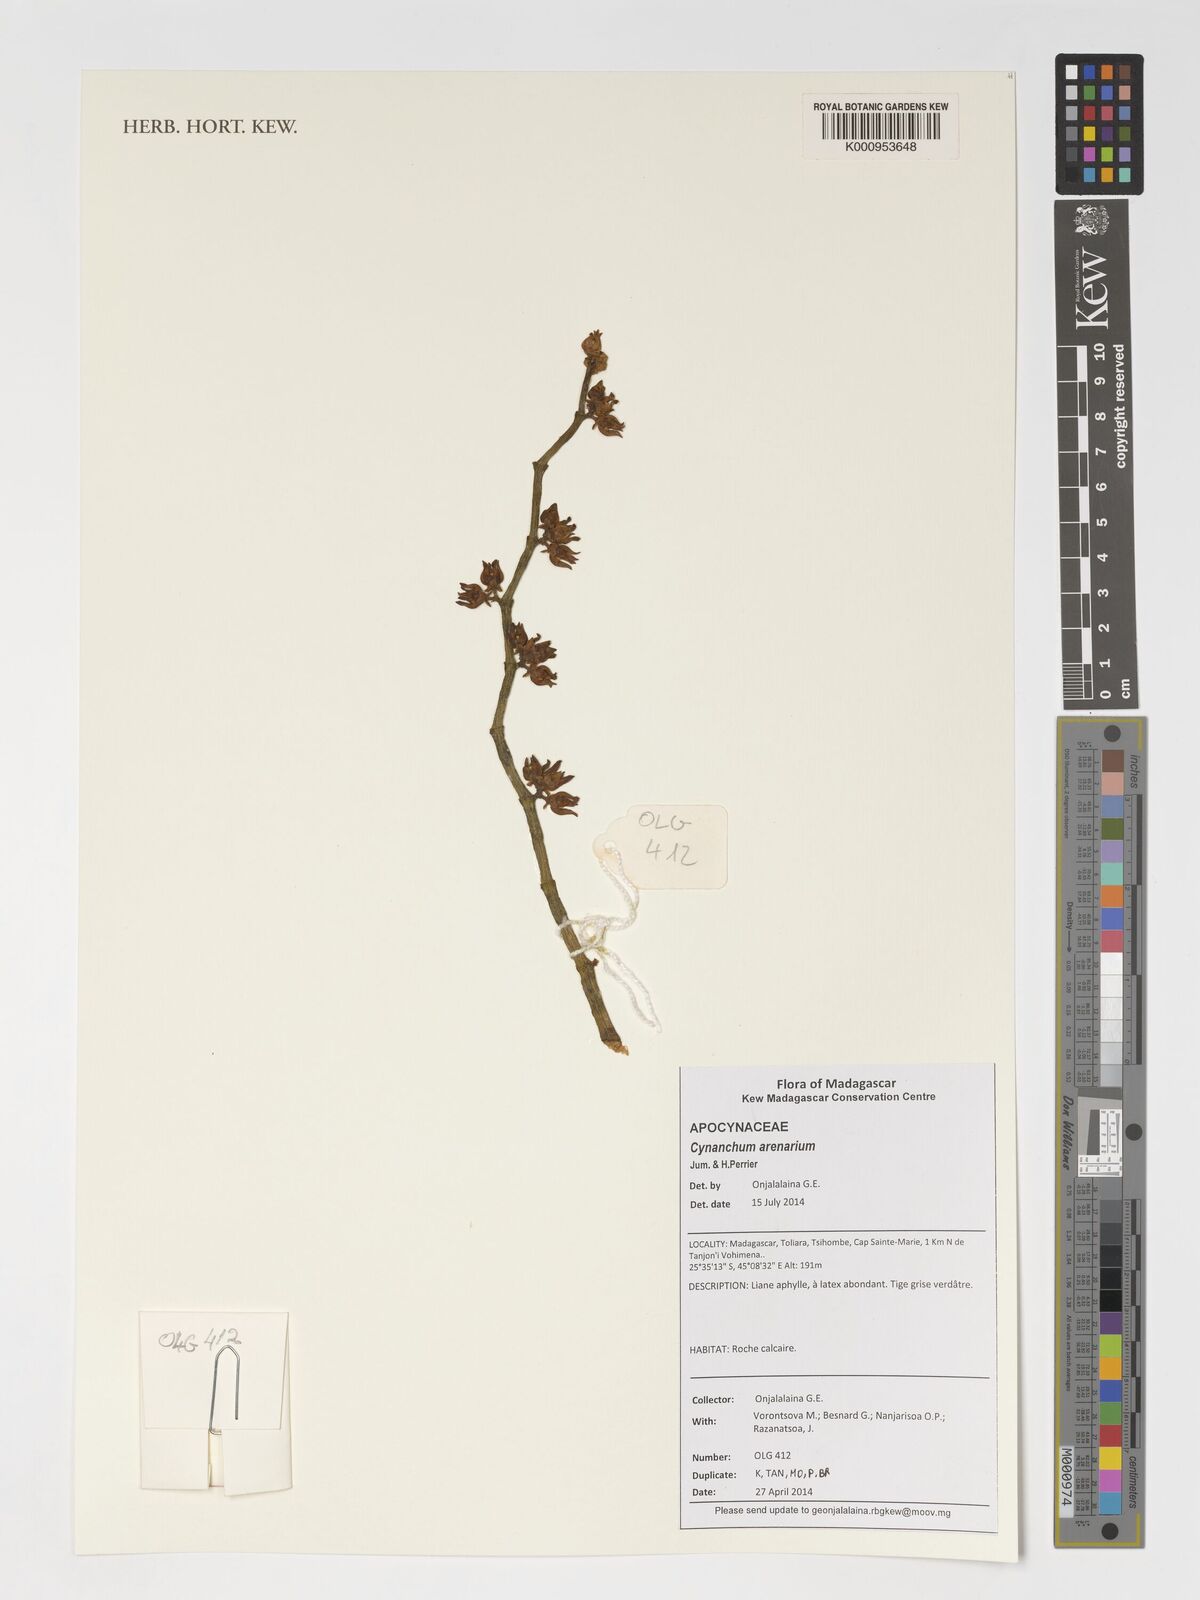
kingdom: Plantae
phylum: Tracheophyta
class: Magnoliopsida
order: Gentianales
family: Apocynaceae
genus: Cynanchum
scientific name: Cynanchum arenarium
